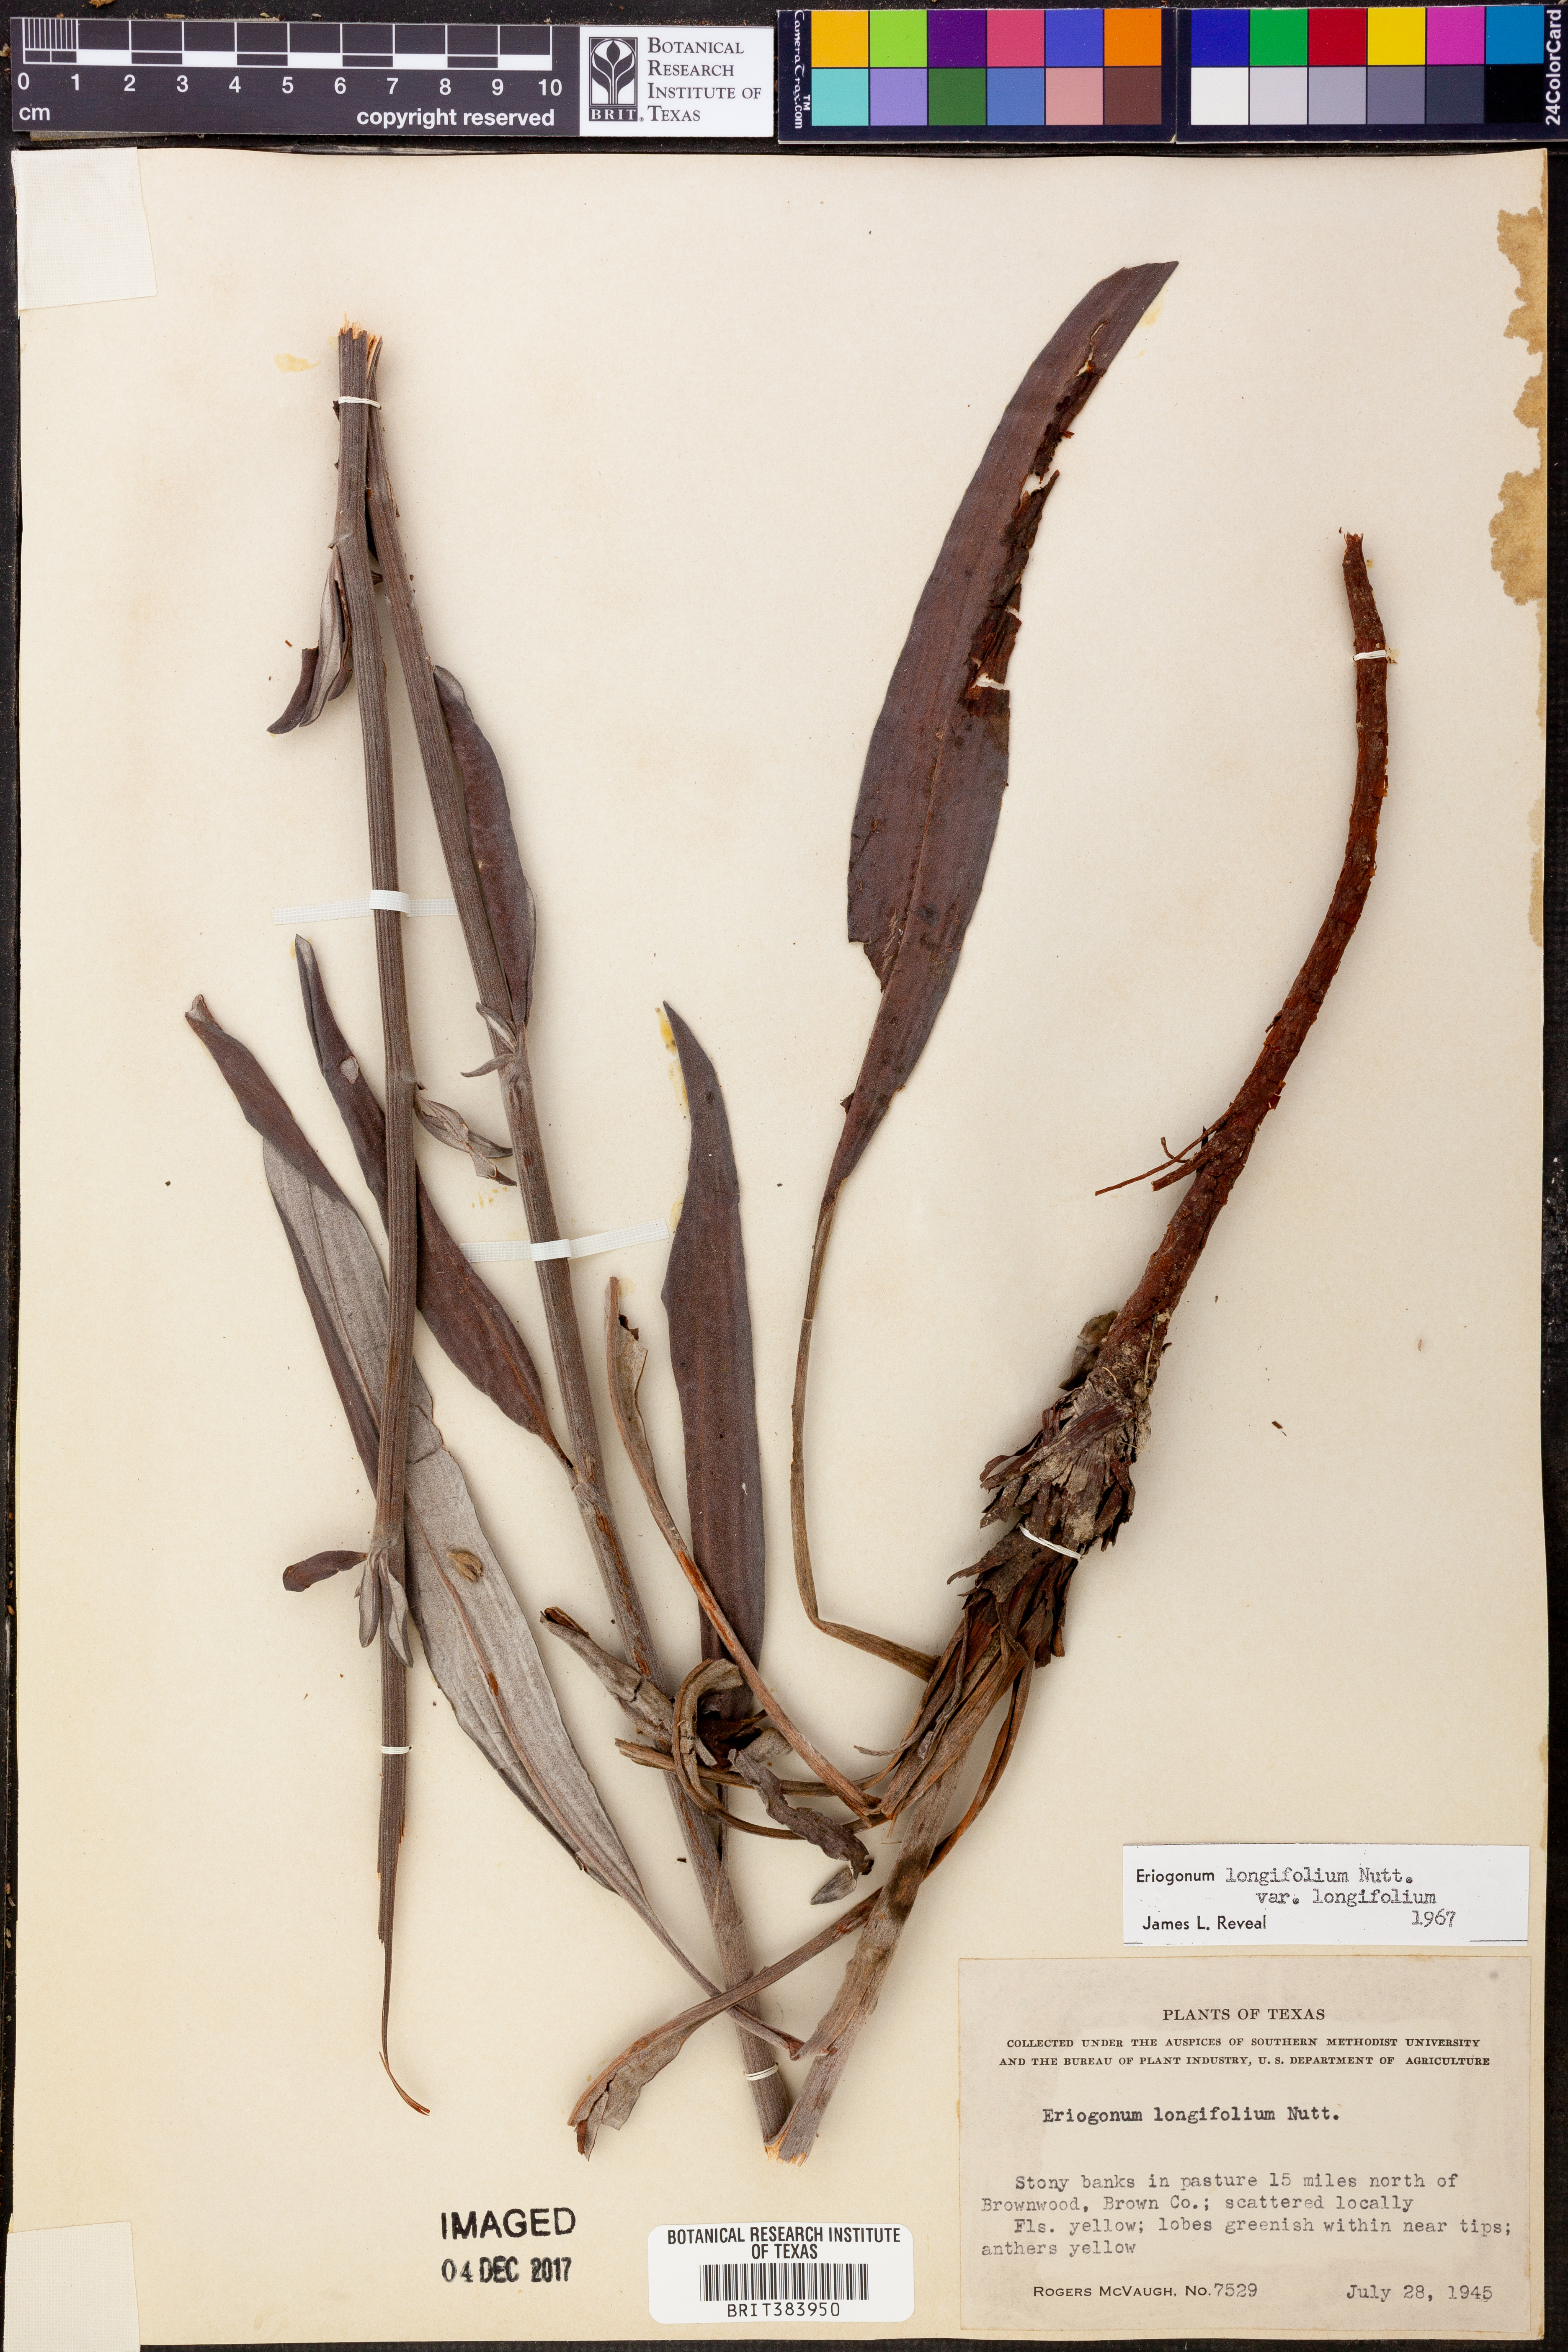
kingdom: Plantae
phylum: Tracheophyta
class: Magnoliopsida
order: Caryophyllales
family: Polygonaceae
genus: Eriogonum
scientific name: Eriogonum longifolium
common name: Longleaf wild buckwheat
